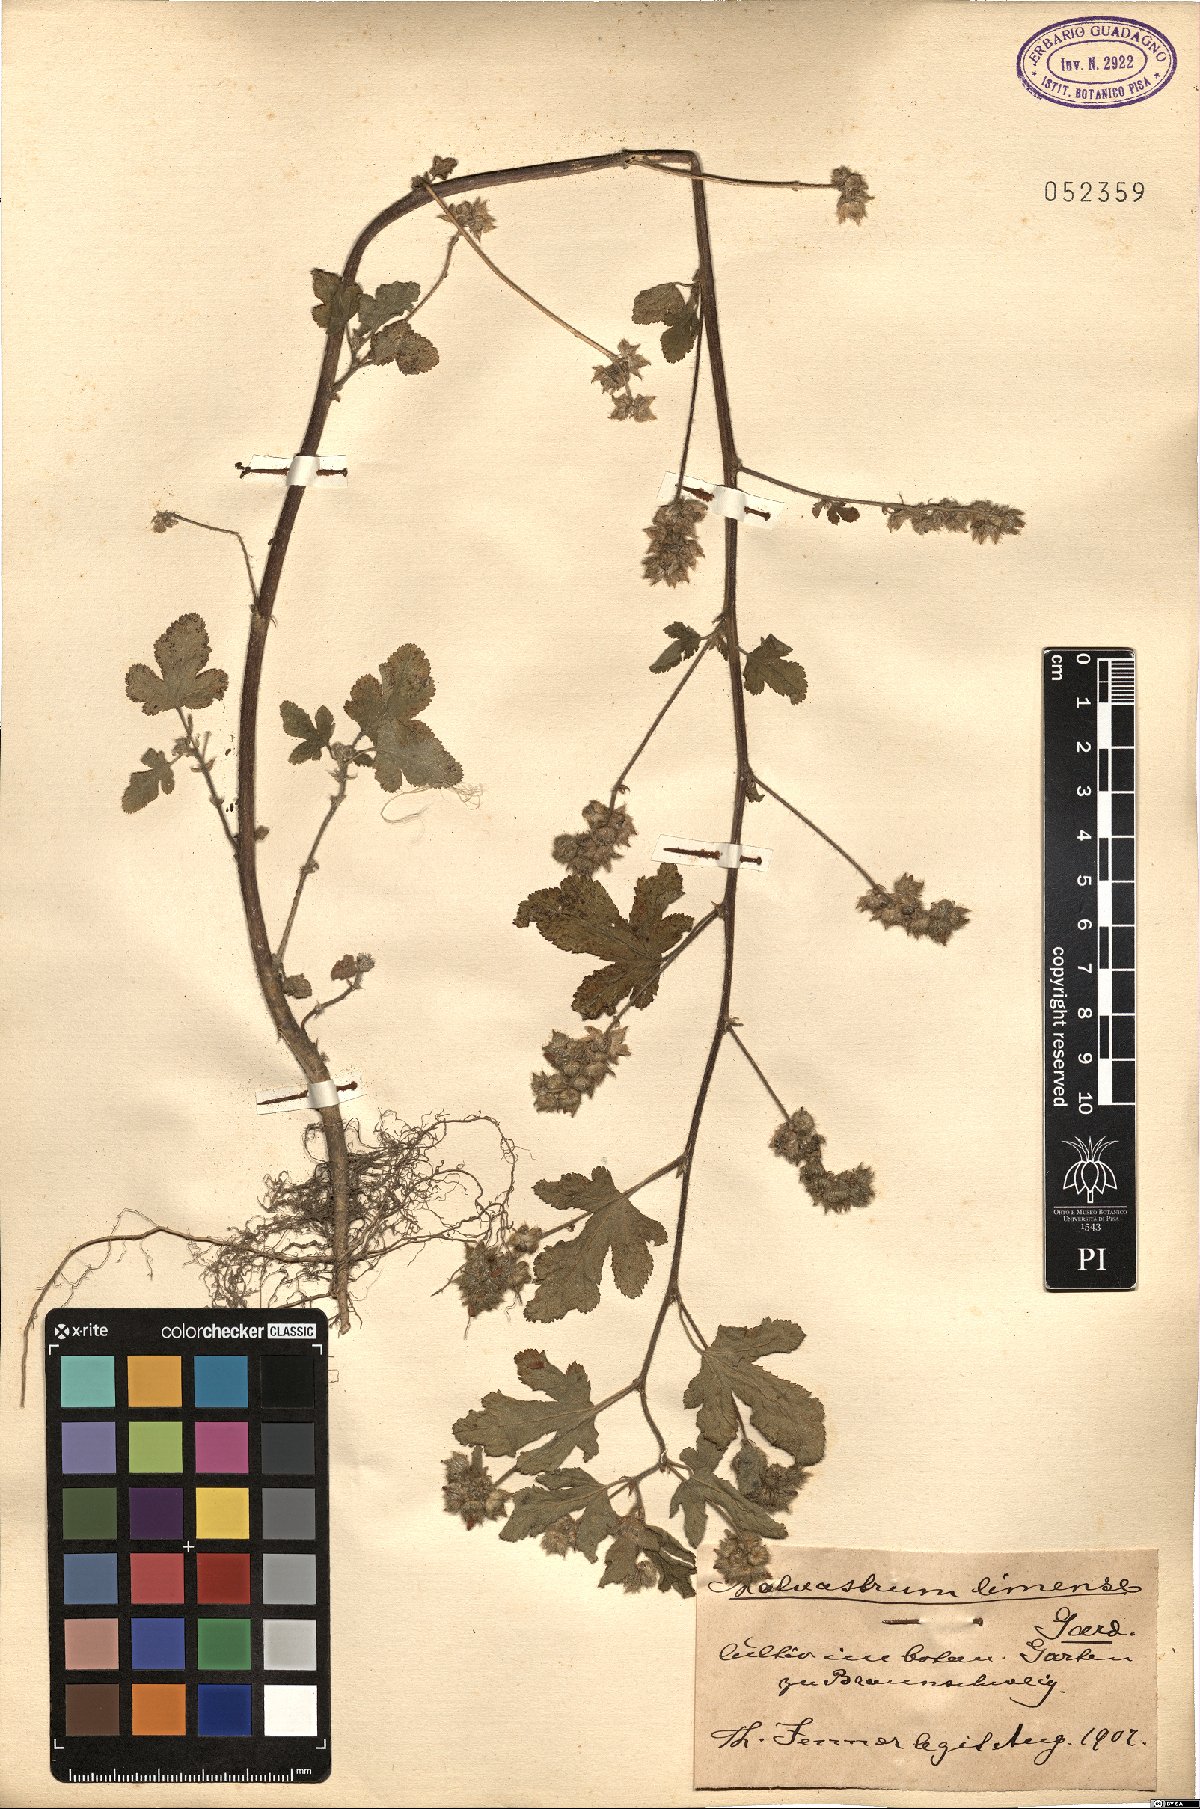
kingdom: Plantae
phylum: Tracheophyta
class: Magnoliopsida
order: Malvales
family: Malvaceae
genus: Fuertesimalva
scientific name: Fuertesimalva limensis
